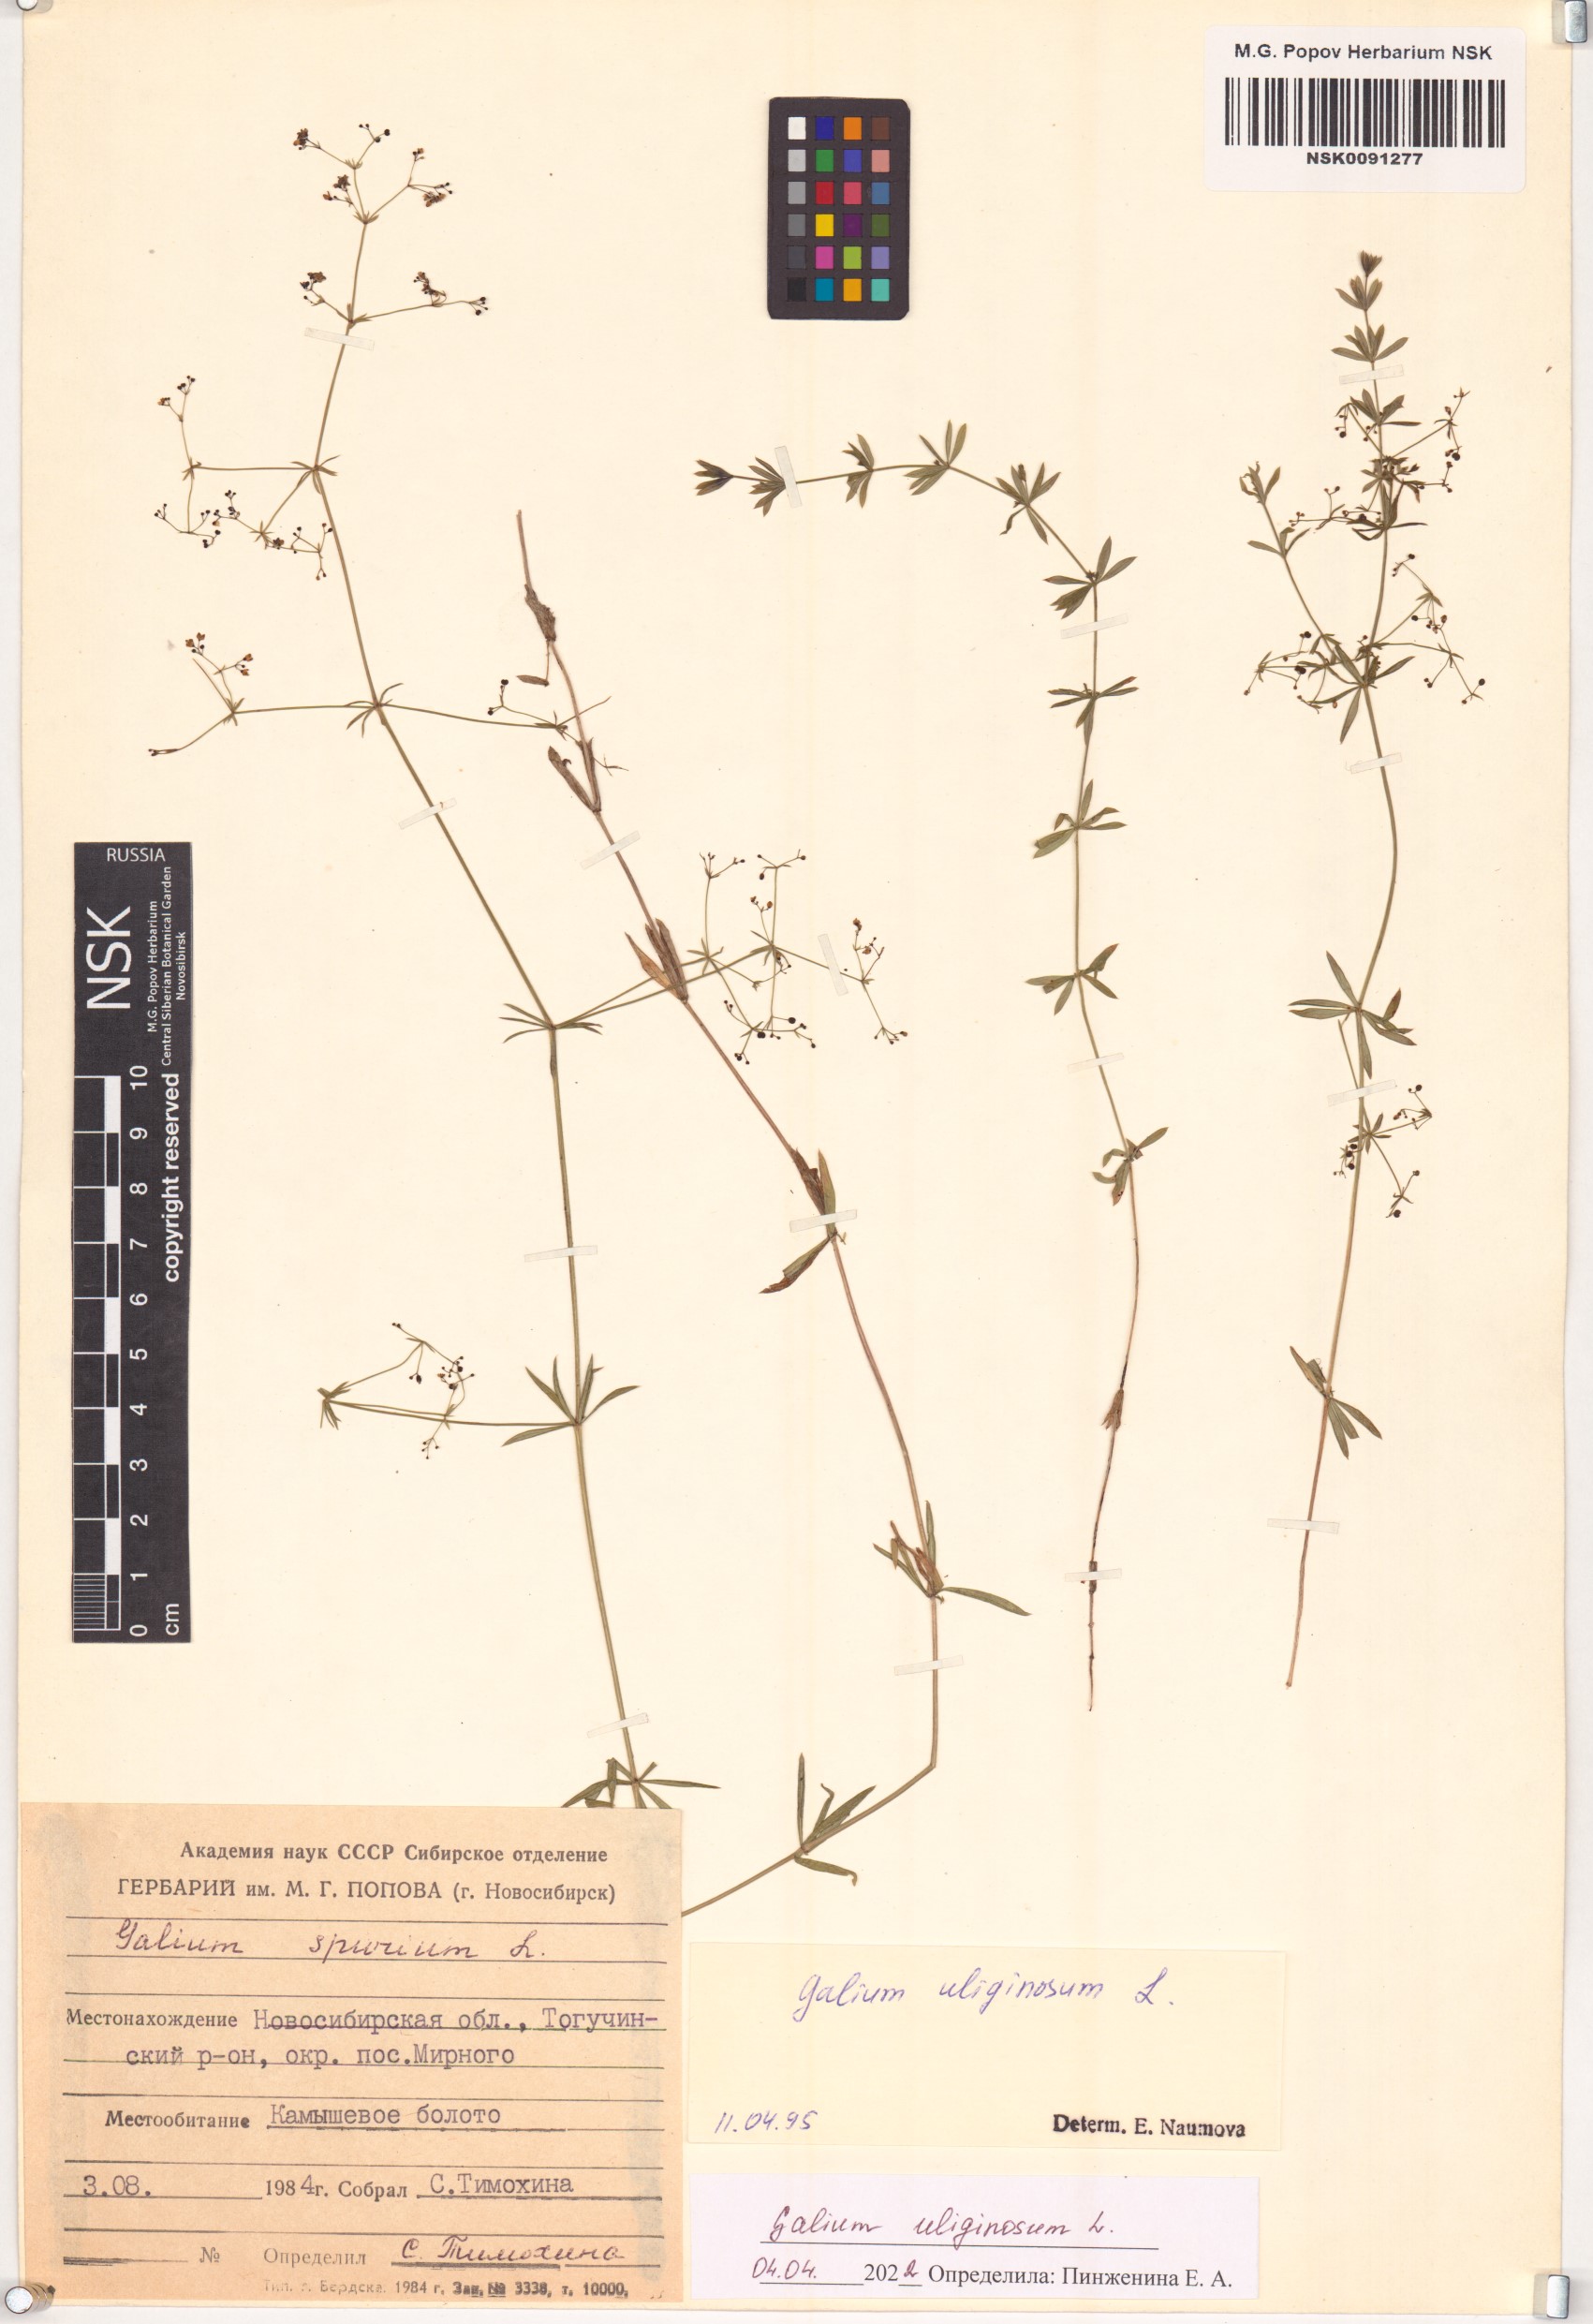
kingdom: Plantae
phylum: Tracheophyta
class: Magnoliopsida
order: Gentianales
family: Rubiaceae
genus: Galium
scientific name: Galium uliginosum
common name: Fen bedstraw
